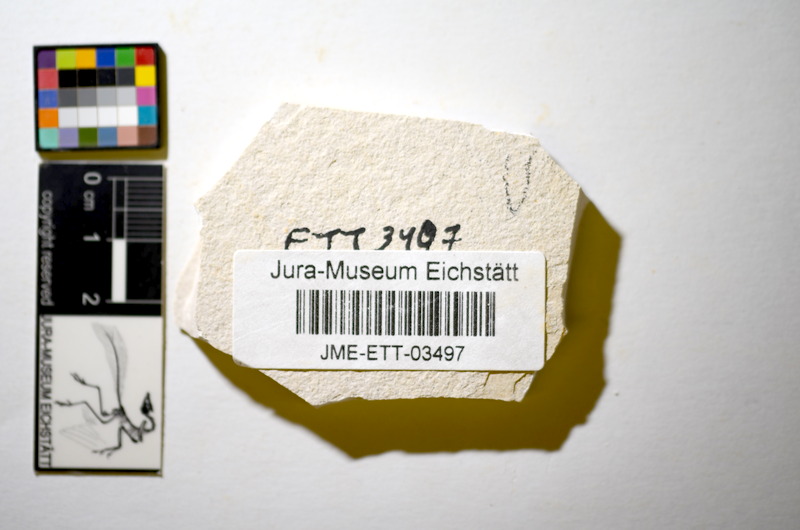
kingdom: Animalia
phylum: Chordata
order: Salmoniformes
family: Orthogonikleithridae
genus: Orthogonikleithrus
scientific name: Orthogonikleithrus hoelli
